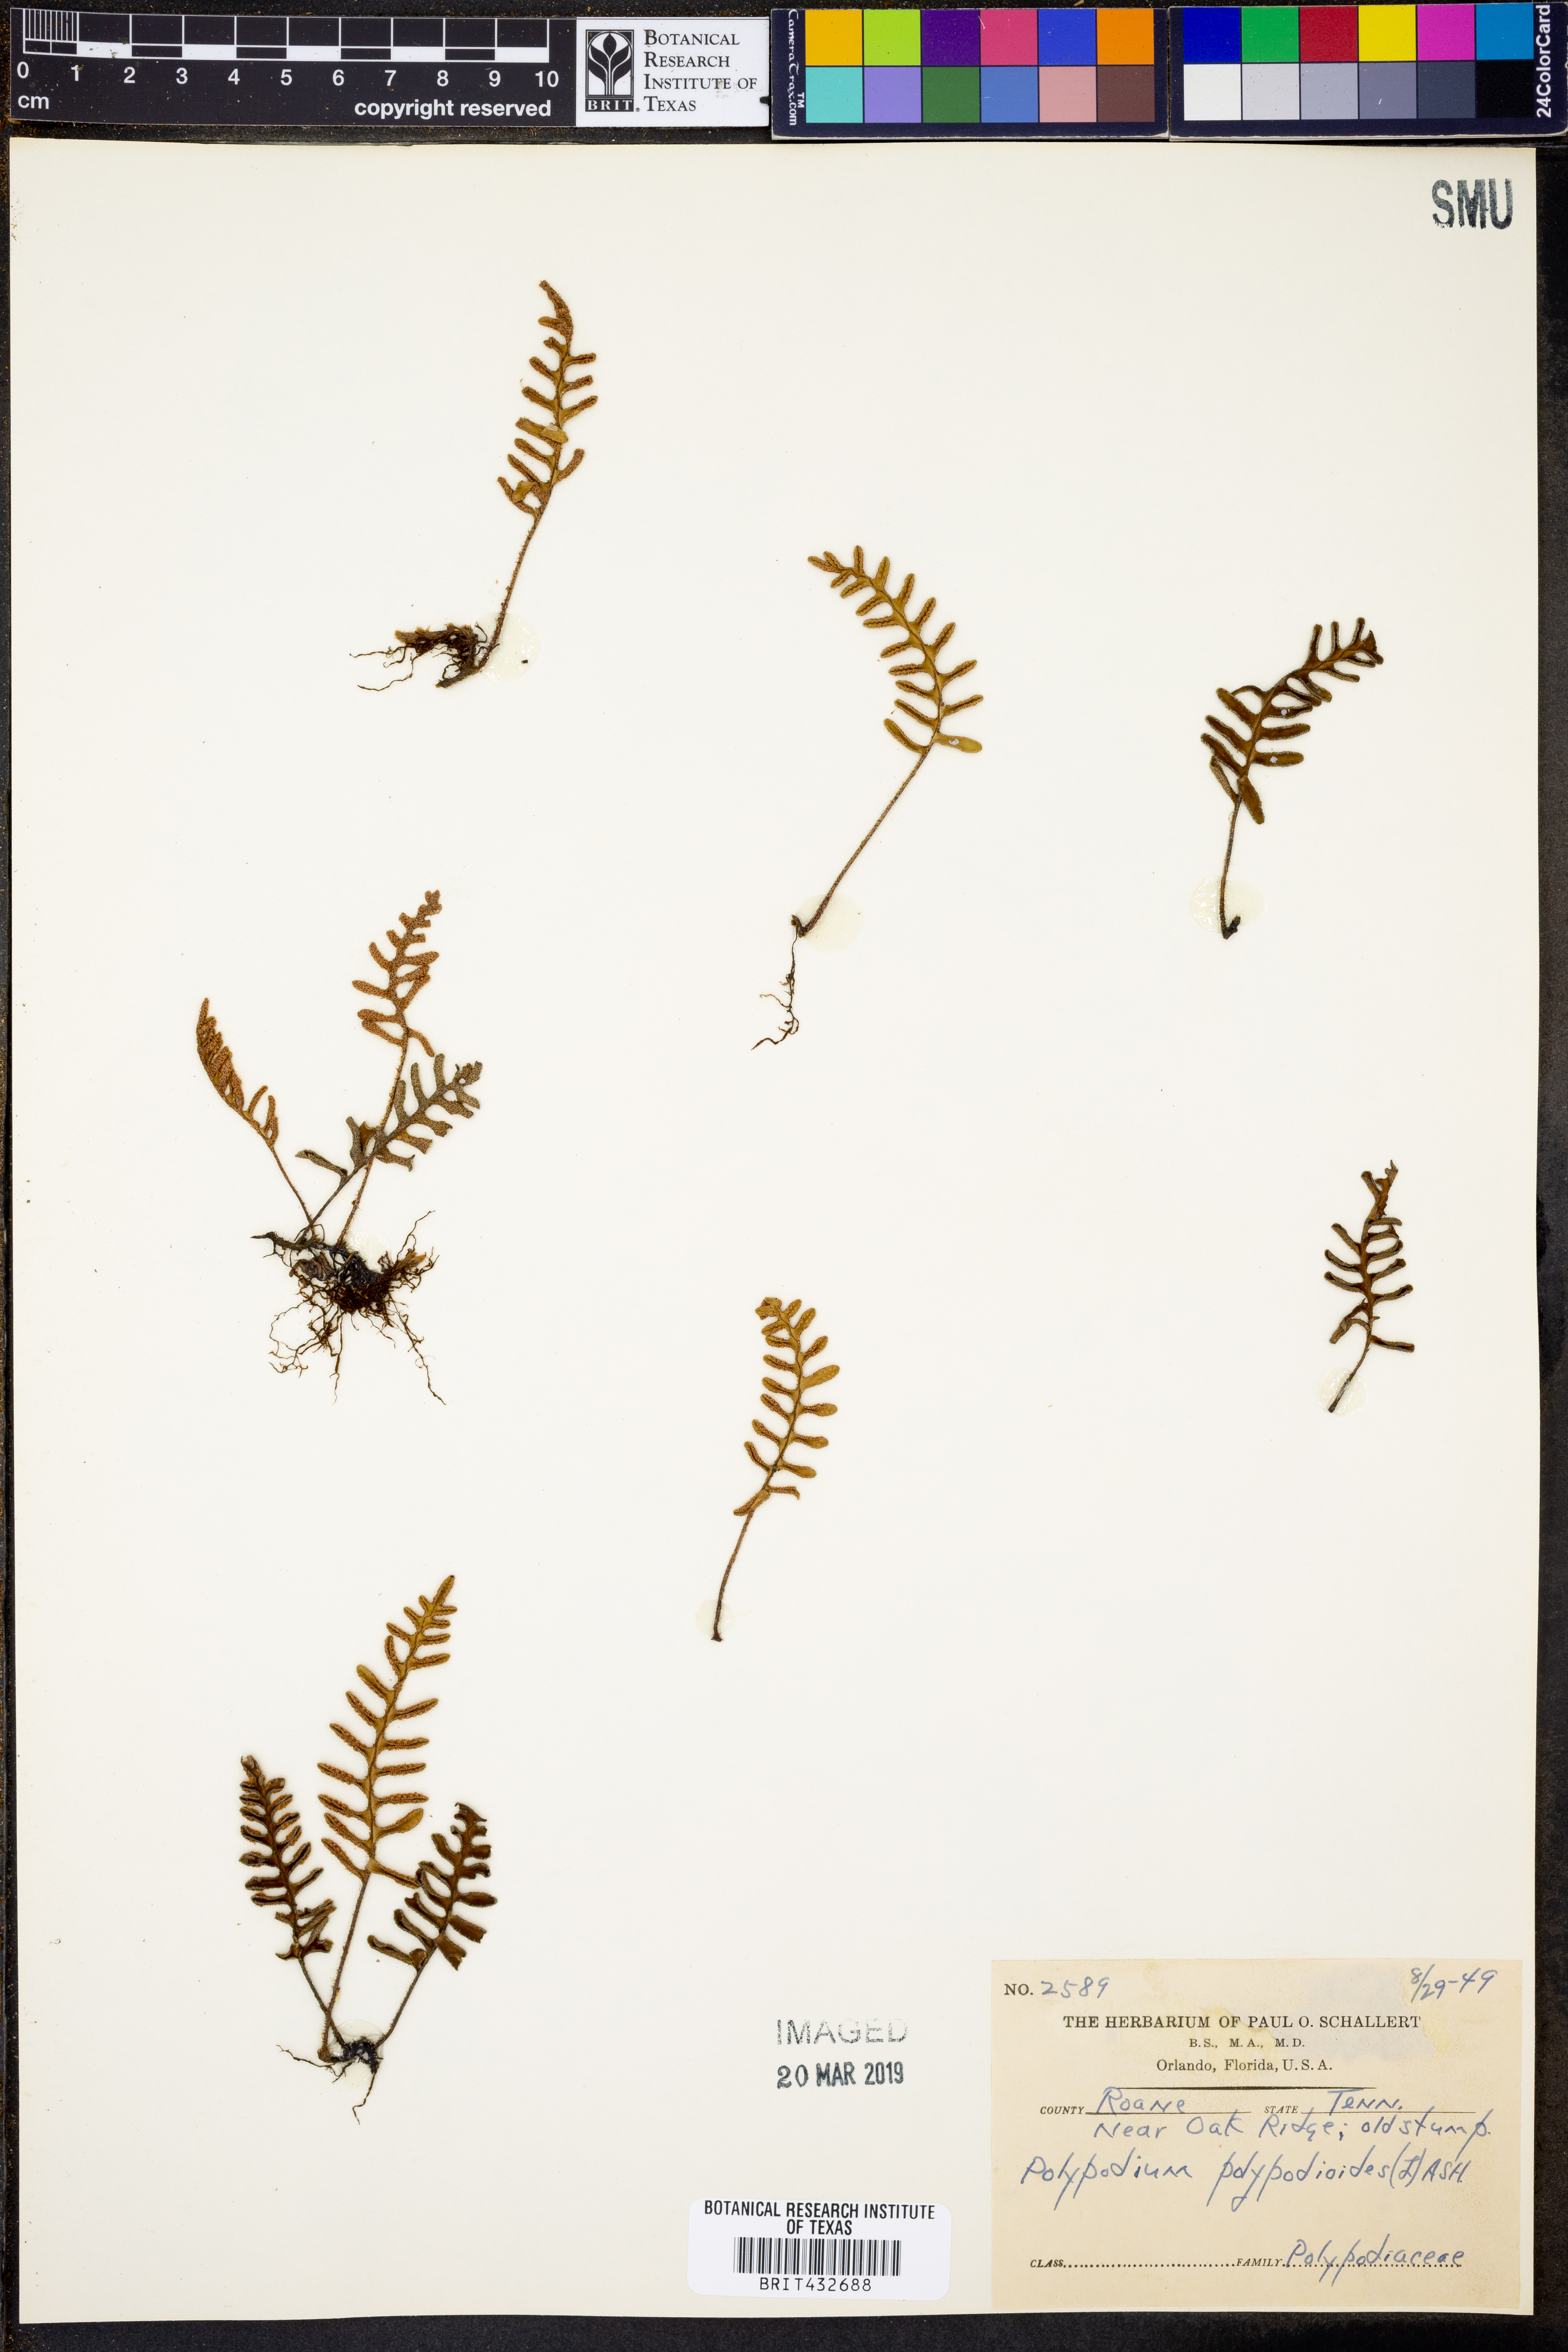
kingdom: Plantae
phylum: Tracheophyta
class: Polypodiopsida
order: Polypodiales
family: Polypodiaceae
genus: Pleopeltis
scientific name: Pleopeltis polypodioides
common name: Resurrection fern
